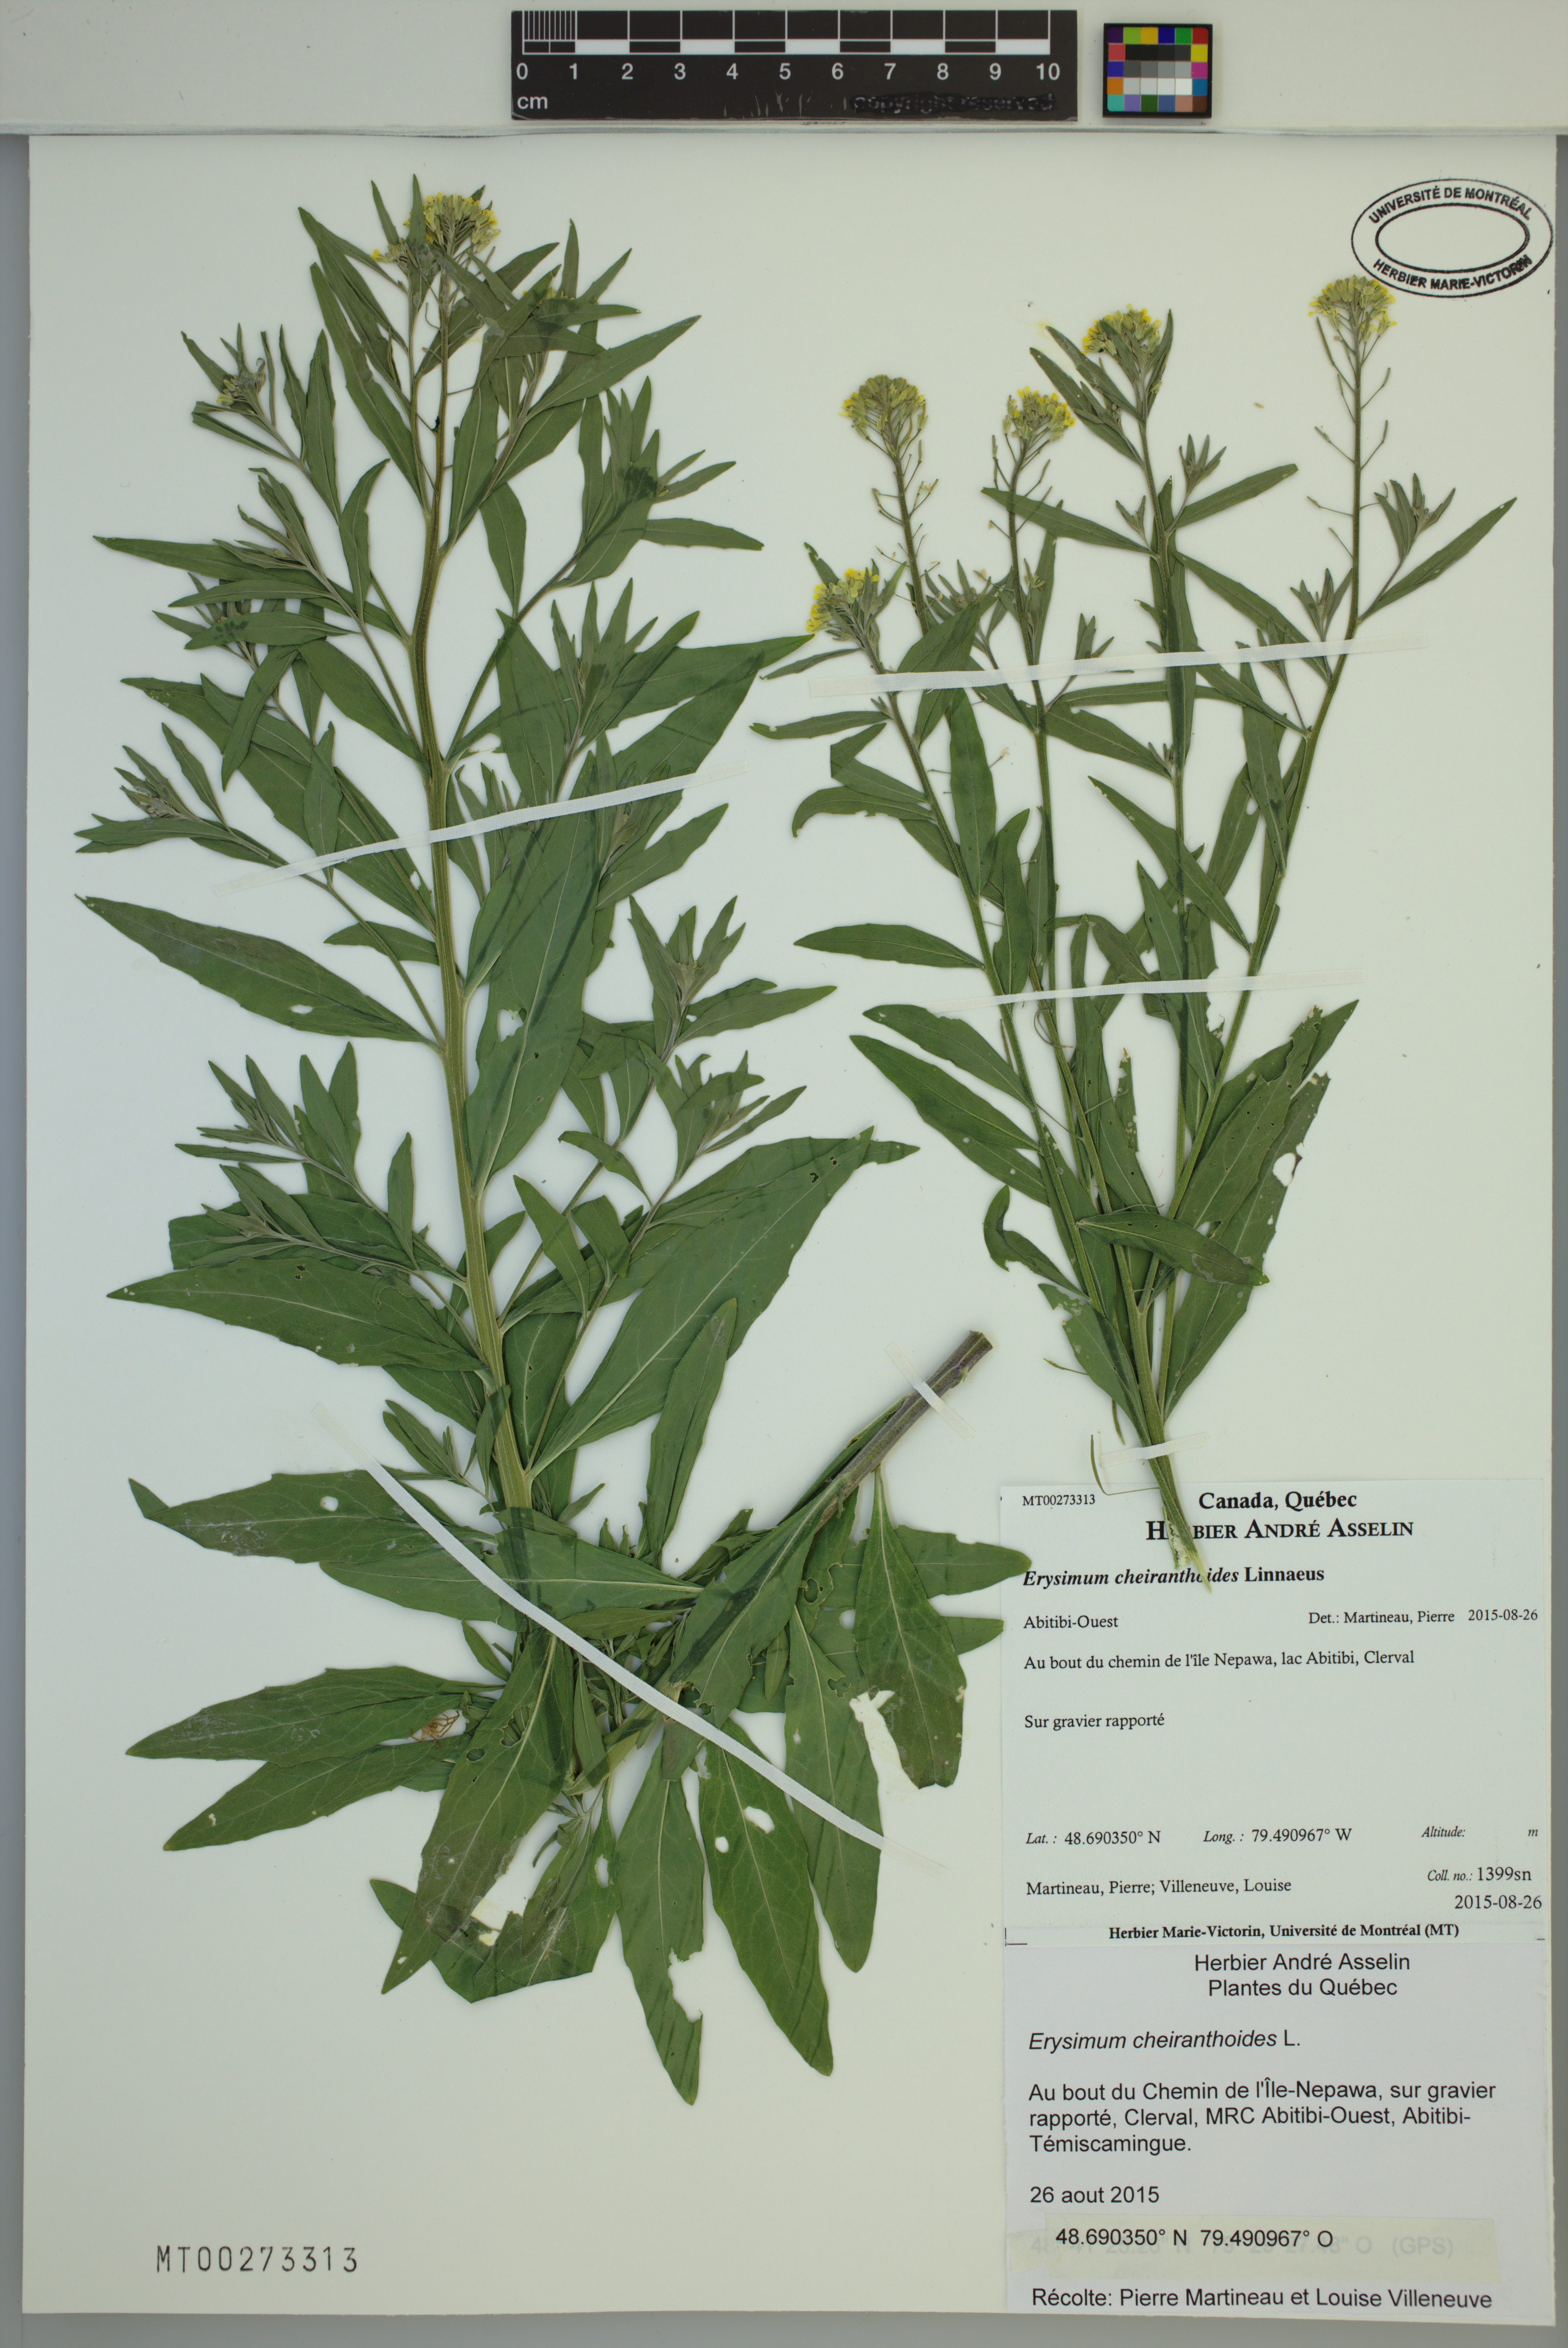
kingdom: Plantae
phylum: Tracheophyta
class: Magnoliopsida
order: Brassicales
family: Brassicaceae
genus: Erysimum
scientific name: Erysimum cheiranthoides
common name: Treacle mustard
